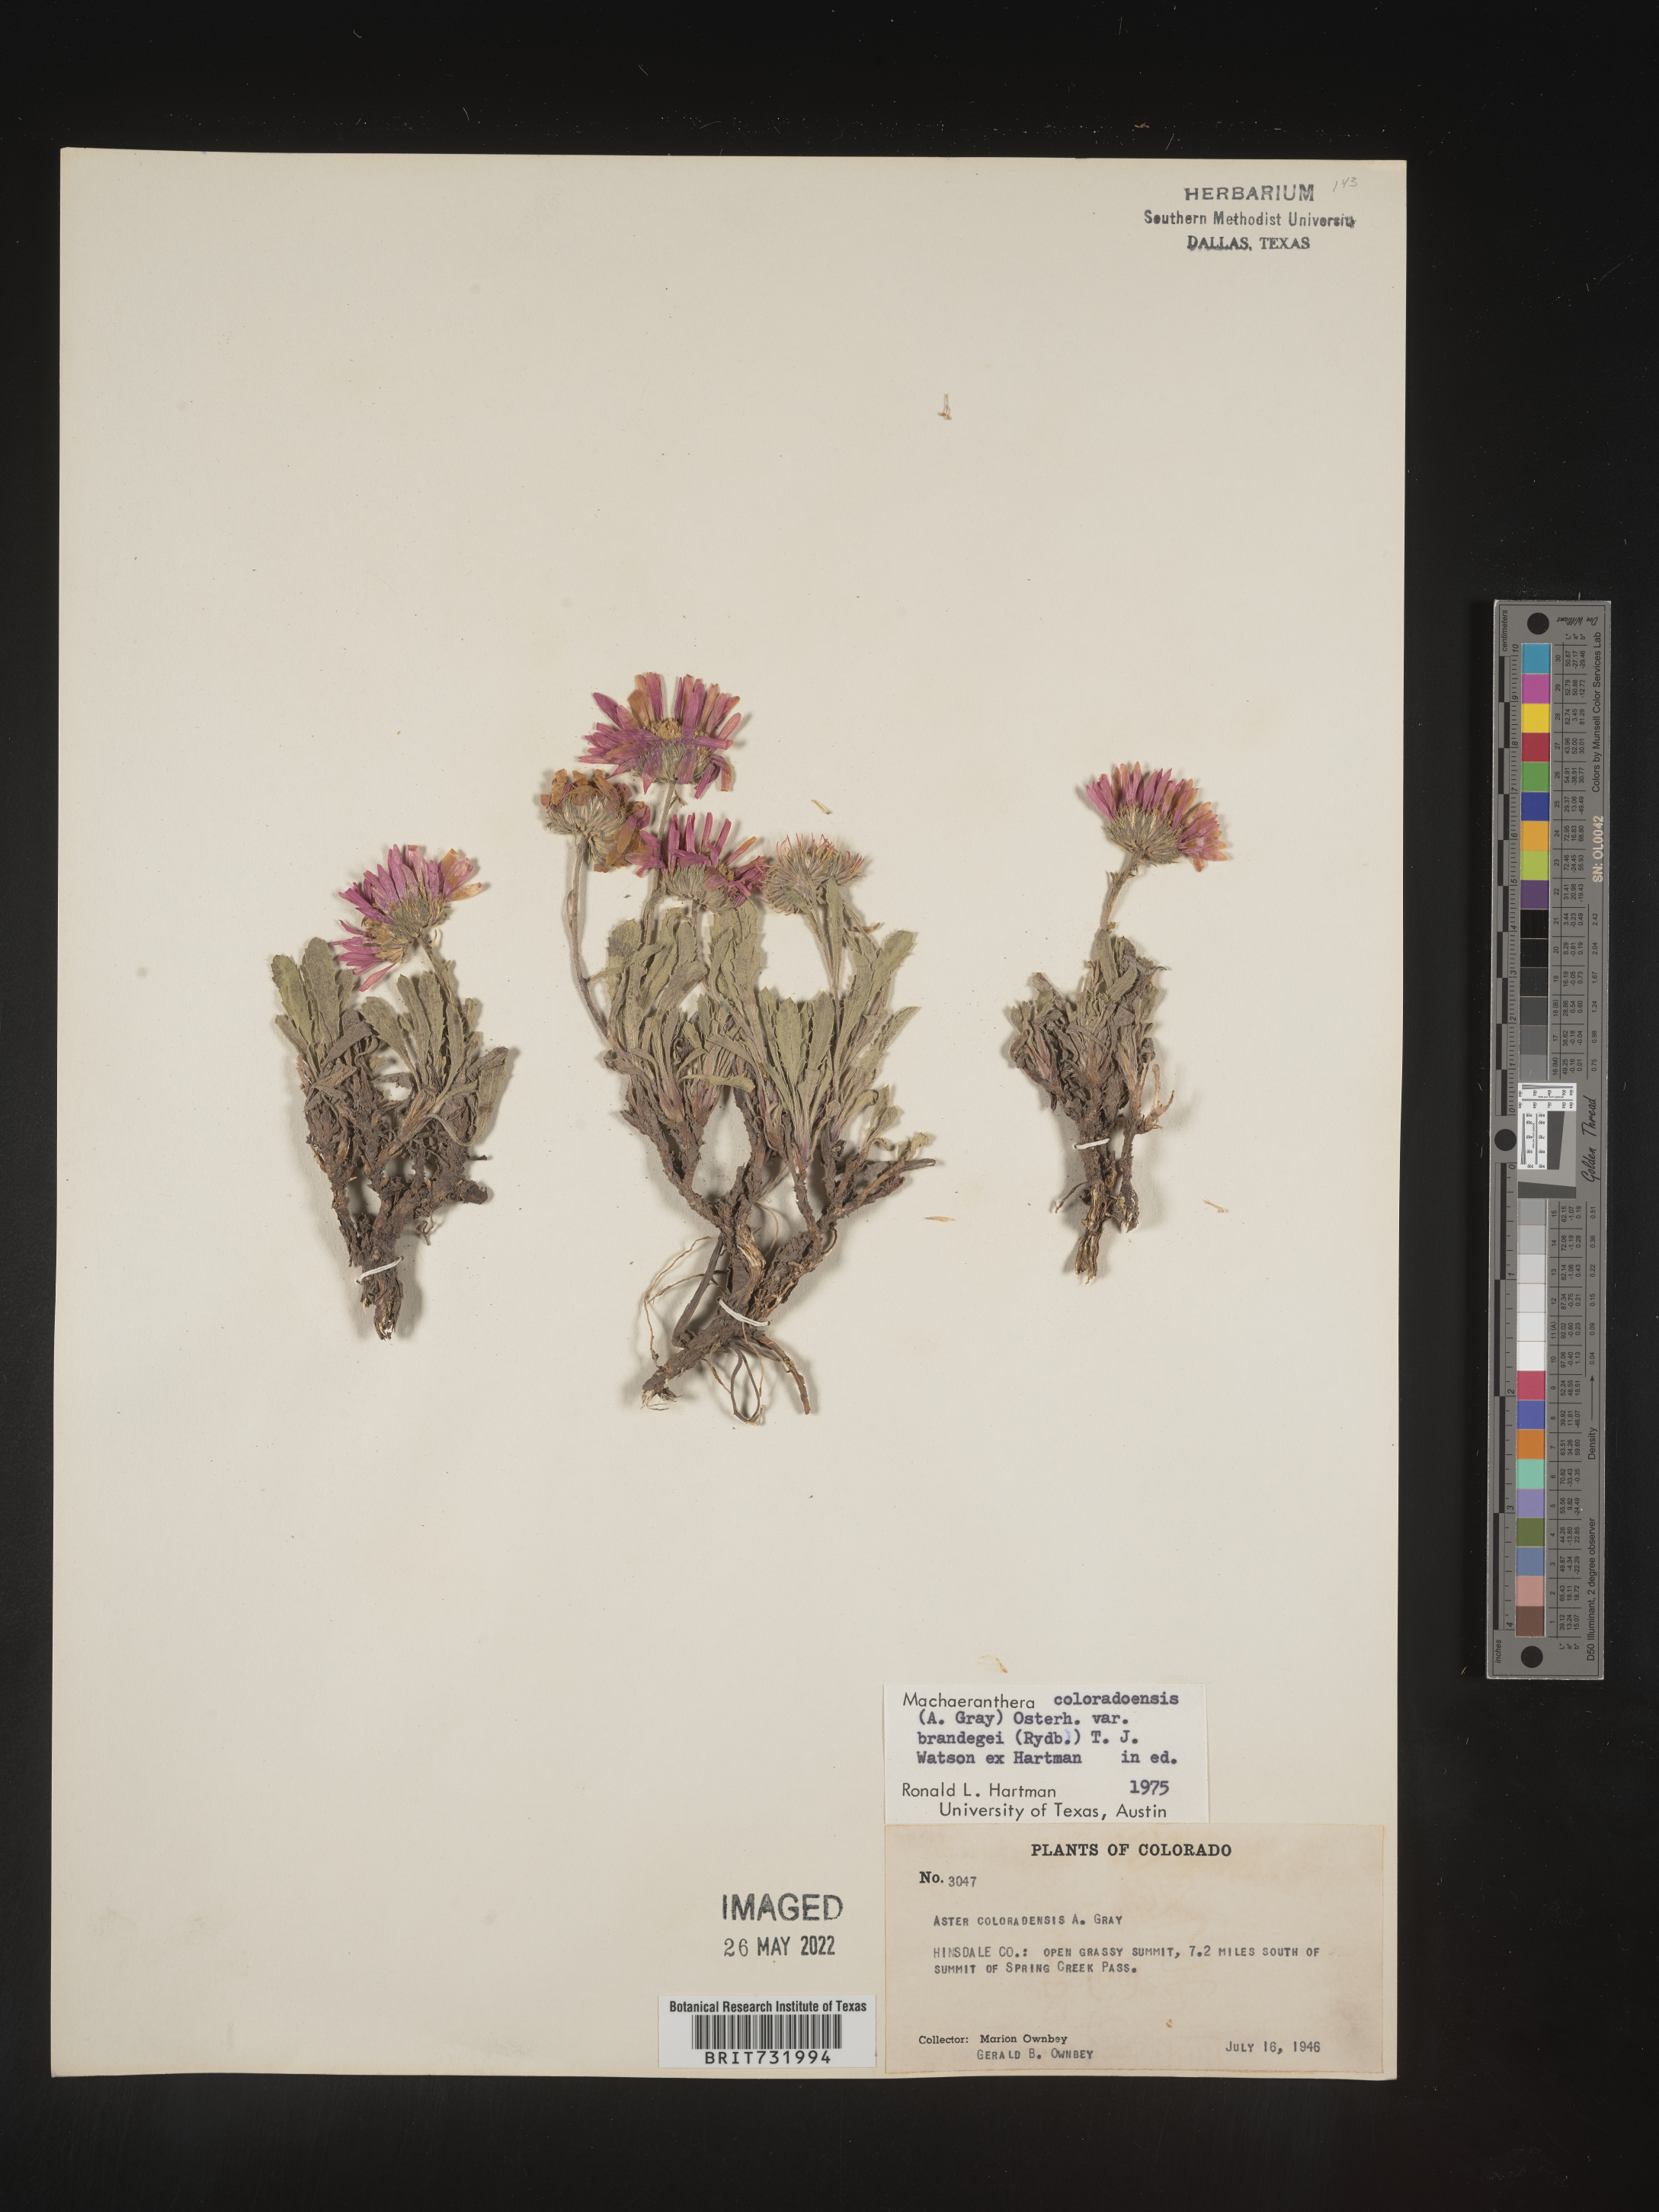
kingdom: Plantae
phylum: Tracheophyta
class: Magnoliopsida
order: Asterales
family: Asteraceae
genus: Xanthisma
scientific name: Xanthisma coloradoense
